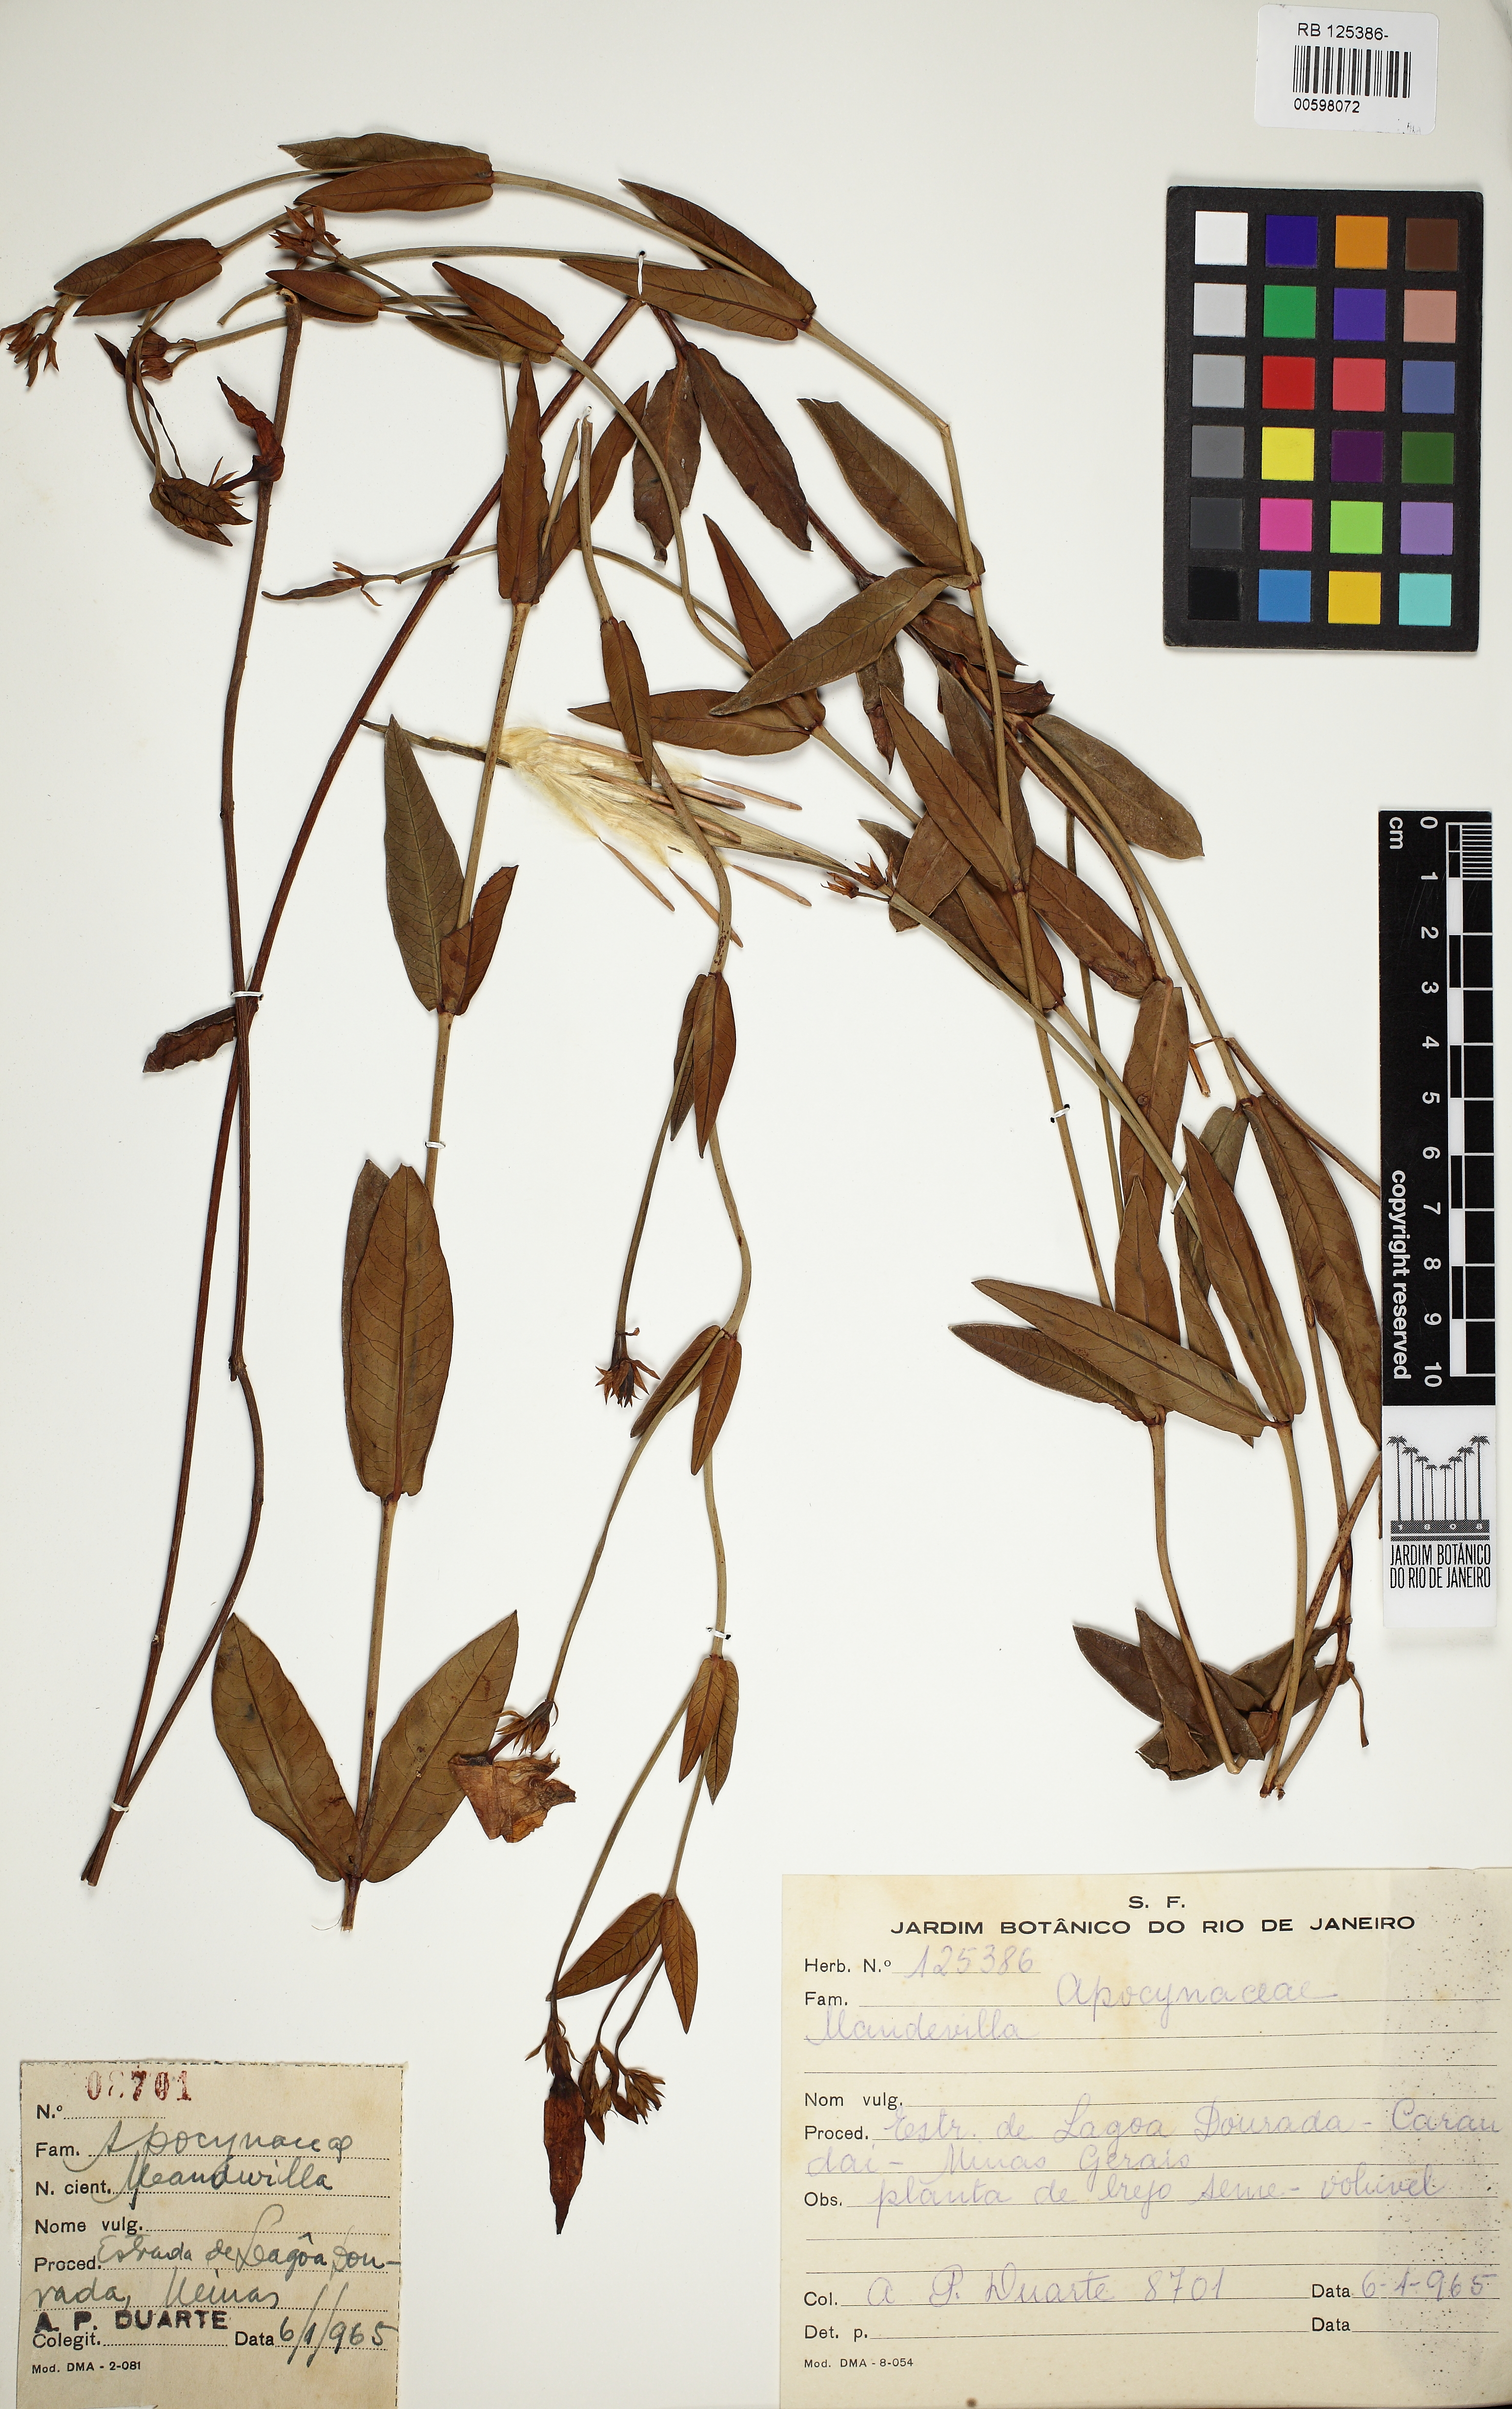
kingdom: Plantae
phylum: Tracheophyta
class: Magnoliopsida
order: Gentianales
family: Apocynaceae
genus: Mandevilla
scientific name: Mandevilla
